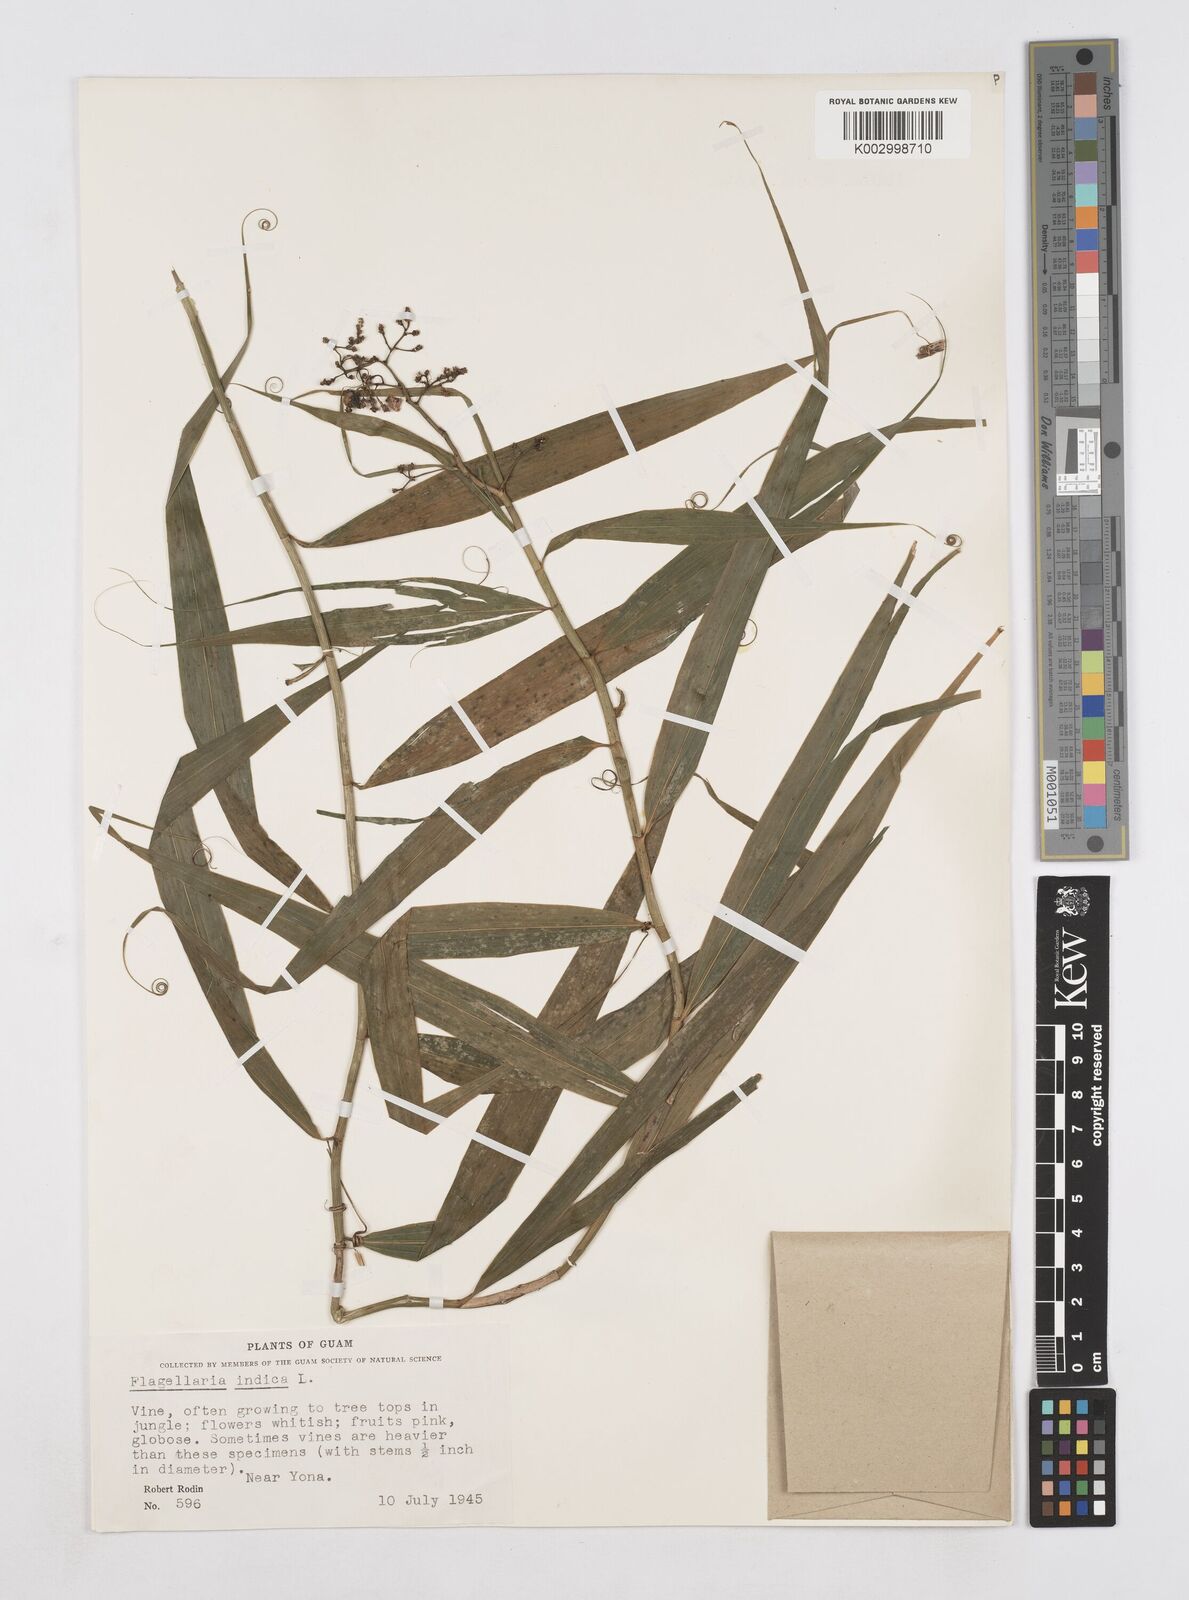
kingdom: Plantae
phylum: Tracheophyta
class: Liliopsida
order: Poales
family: Flagellariaceae
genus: Flagellaria
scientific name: Flagellaria indica
